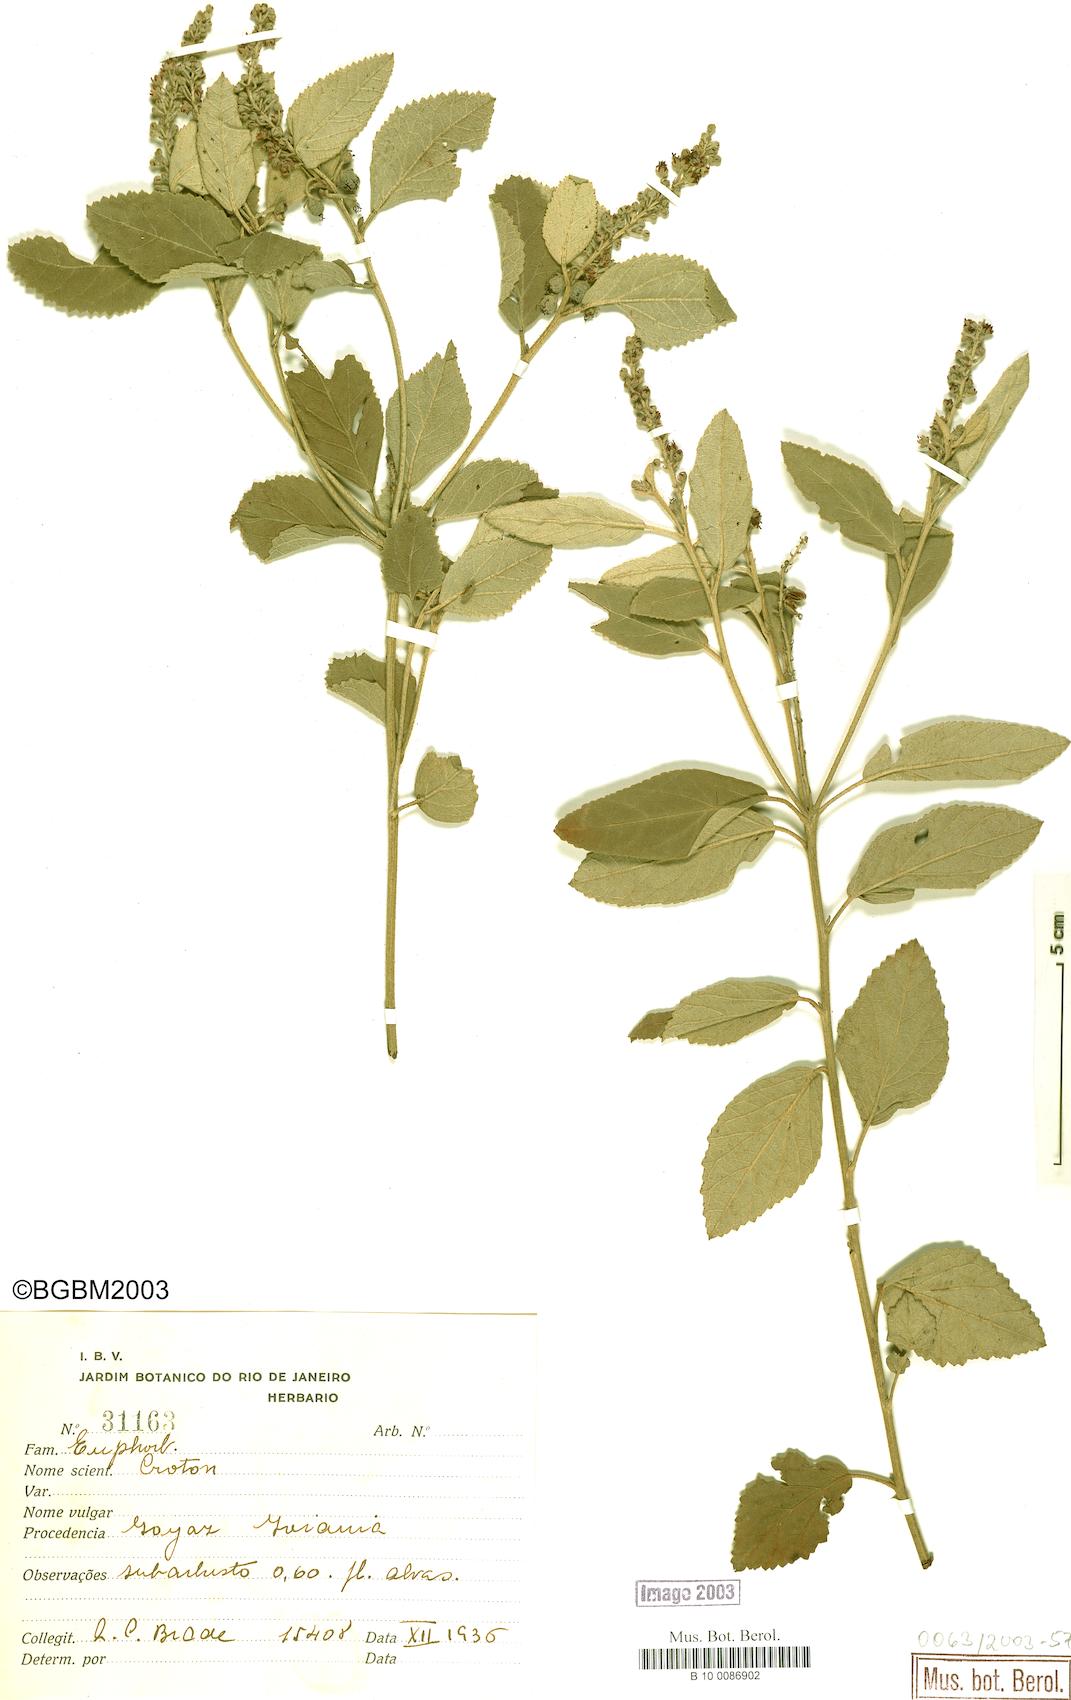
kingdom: Plantae
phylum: Tracheophyta
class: Magnoliopsida
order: Malpighiales
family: Euphorbiaceae
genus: Croton
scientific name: Croton
